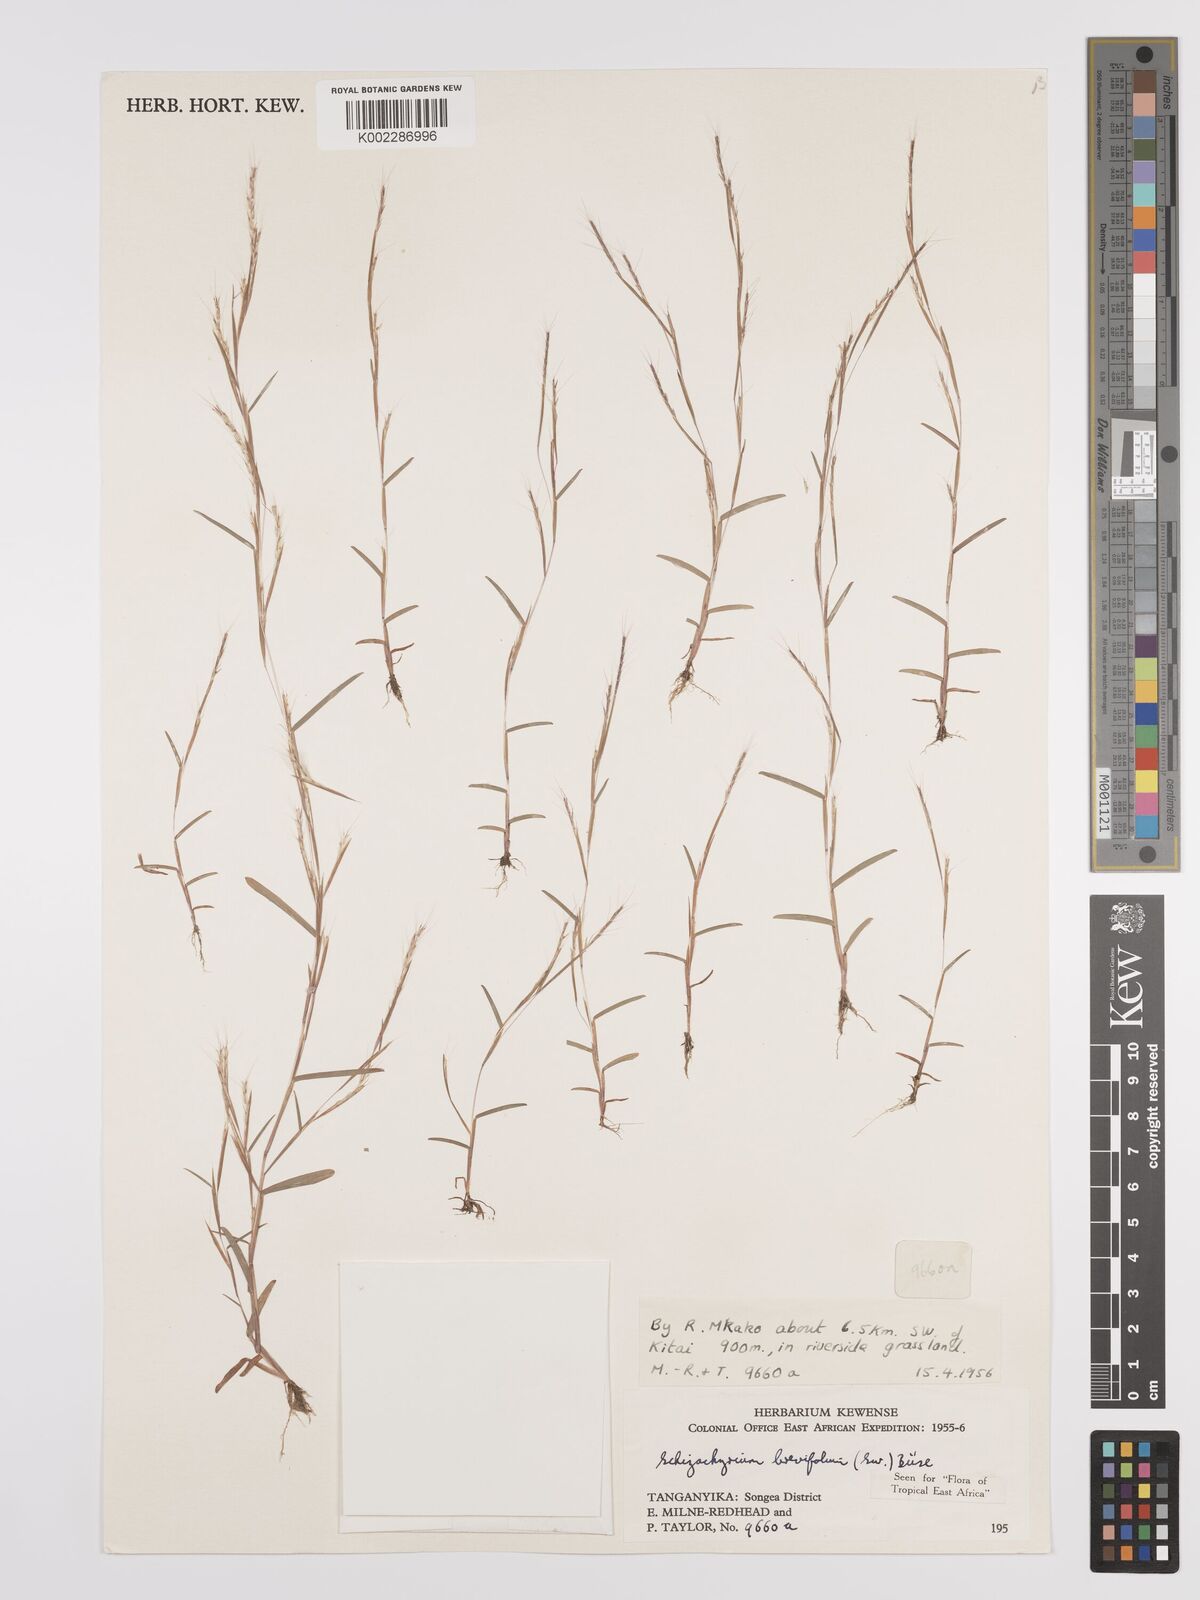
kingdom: Plantae
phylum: Tracheophyta
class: Liliopsida
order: Poales
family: Poaceae
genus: Schizachyrium
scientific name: Schizachyrium brevifolium
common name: Serillo dulce
